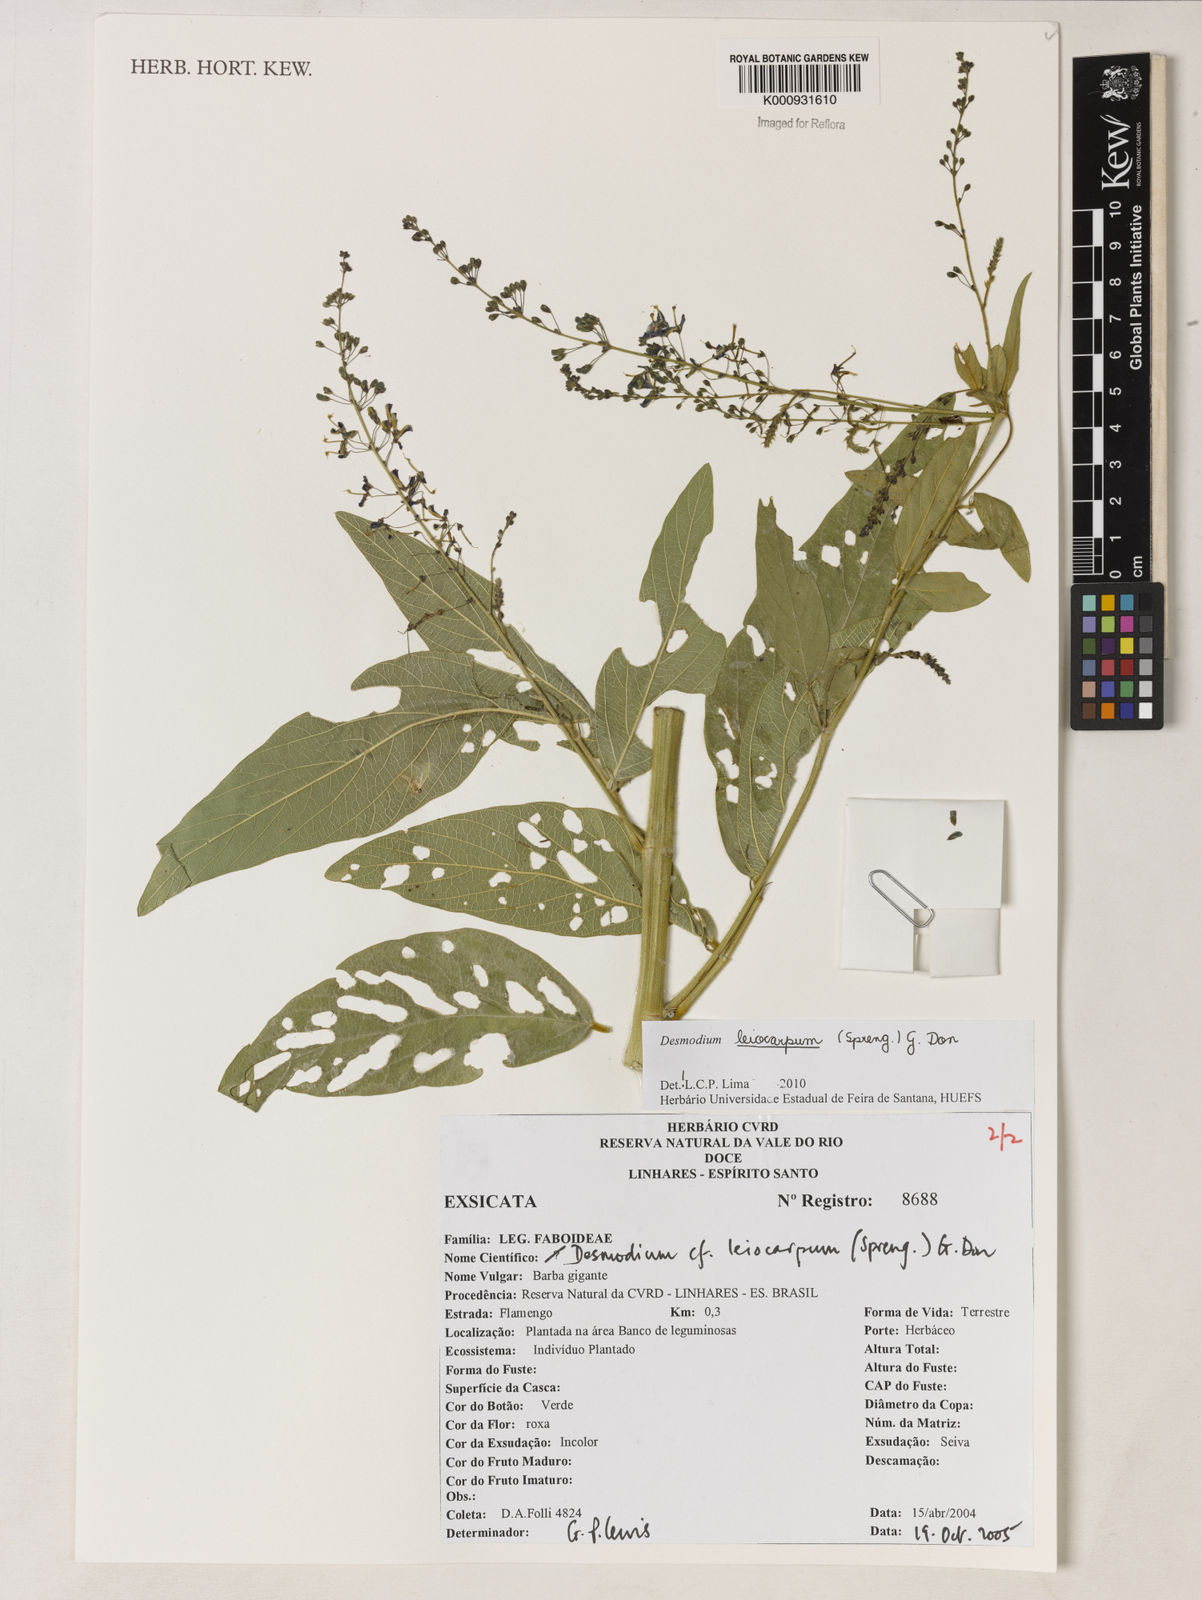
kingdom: Plantae
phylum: Tracheophyta
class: Magnoliopsida
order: Fabales
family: Fabaceae
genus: Desmodium
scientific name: Desmodium leiocarpum
